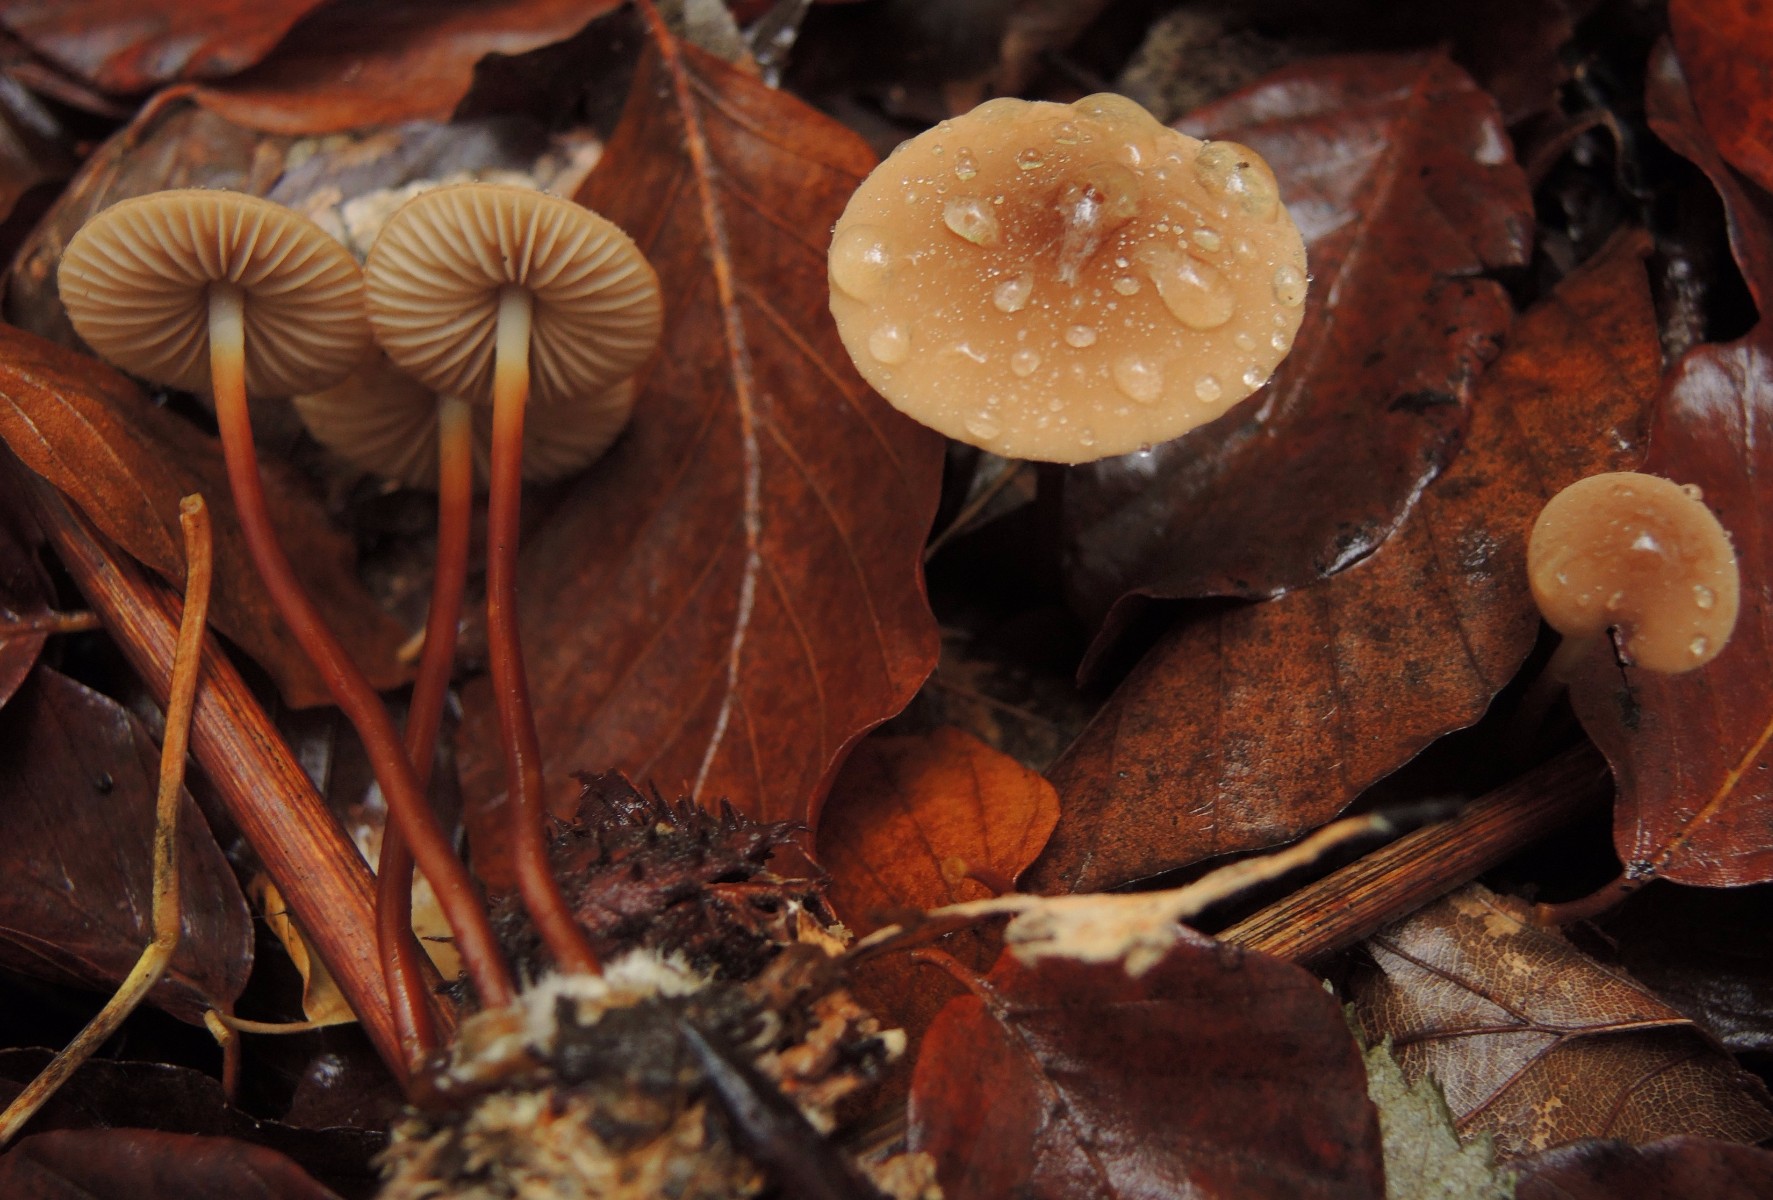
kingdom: Fungi
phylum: Basidiomycota
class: Agaricomycetes
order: Agaricales
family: Marasmiaceae
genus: Marasmius
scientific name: Marasmius cohaerens
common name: hornstokket bruskhat
